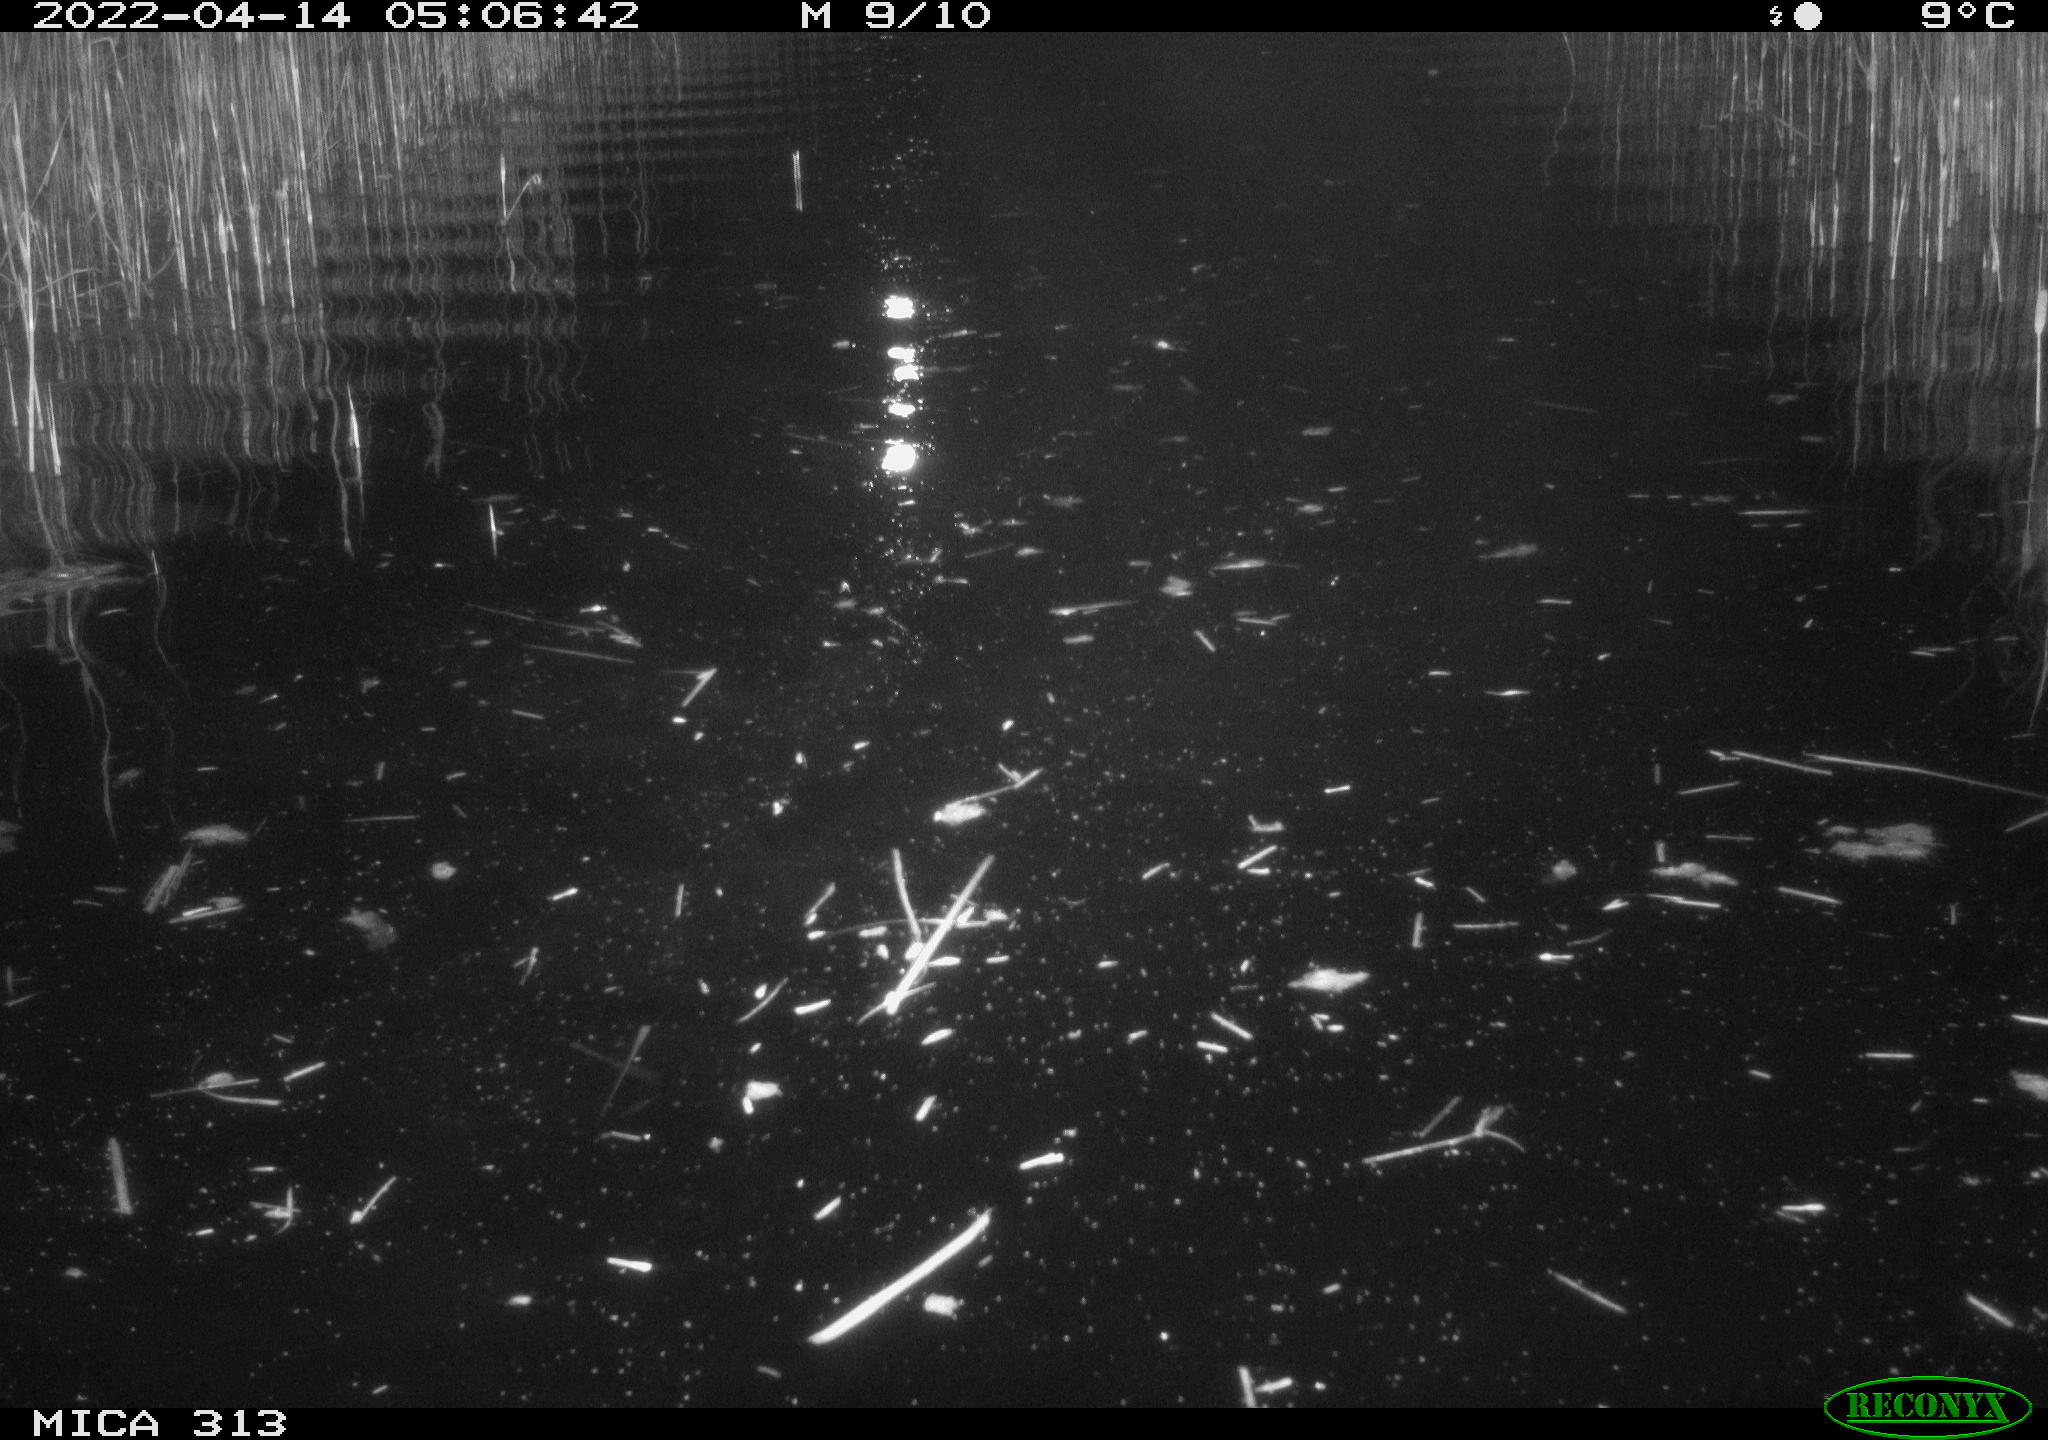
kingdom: Animalia
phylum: Chordata
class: Aves
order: Gruiformes
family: Rallidae
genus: Fulica
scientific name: Fulica atra
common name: Eurasian coot
